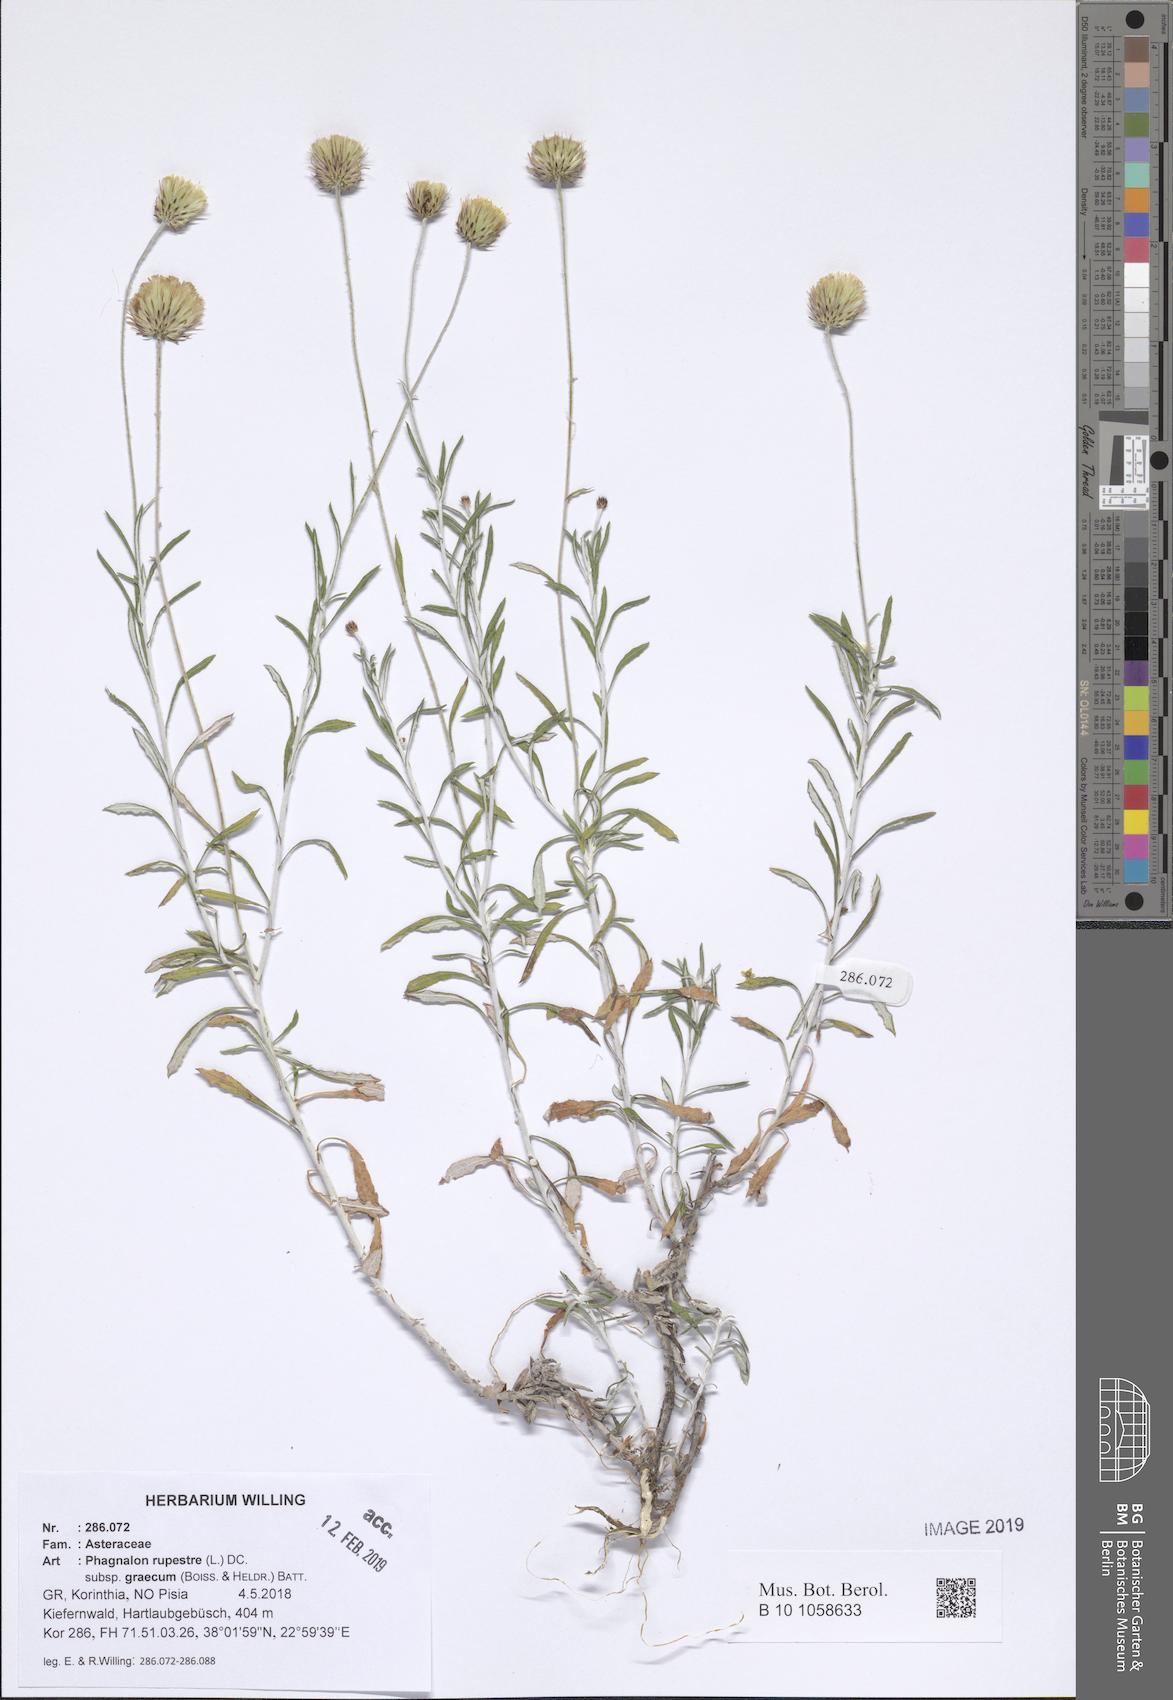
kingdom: Plantae
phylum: Tracheophyta
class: Magnoliopsida
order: Asterales
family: Asteraceae
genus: Phagnalon
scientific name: Phagnalon graecum
